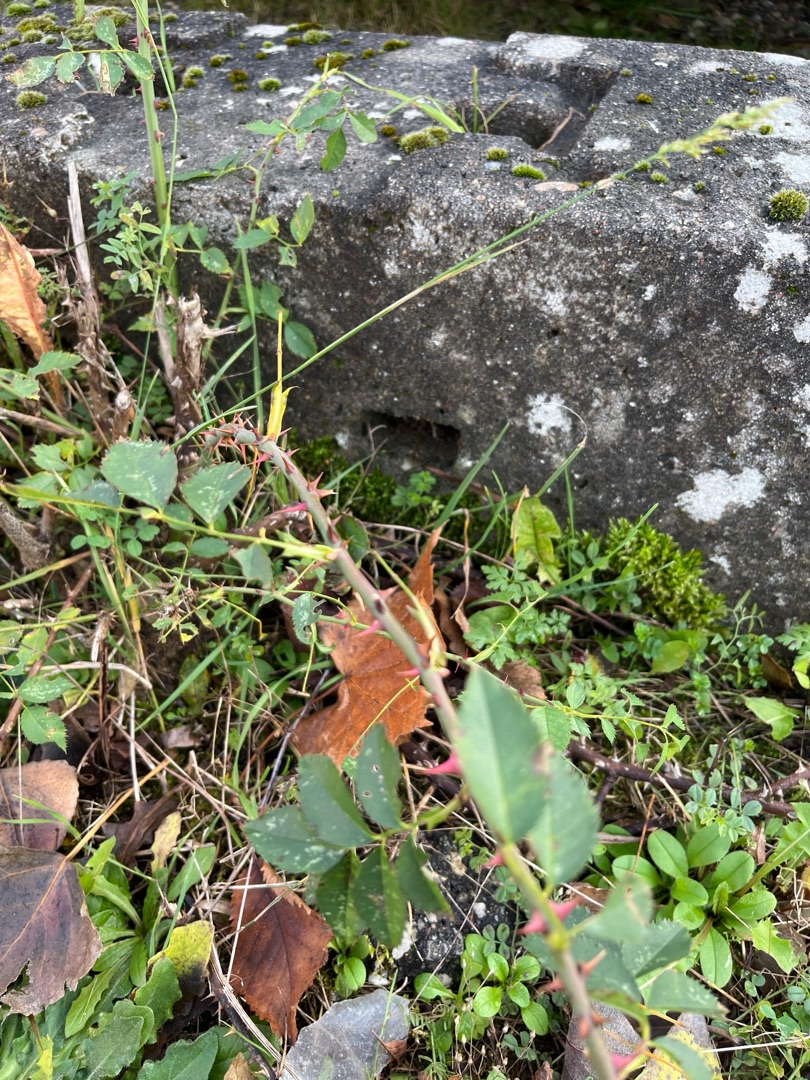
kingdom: Plantae
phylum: Tracheophyta
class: Magnoliopsida
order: Rosales
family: Rosaceae
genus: Rosa
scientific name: Rosa
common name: Roseslægten
